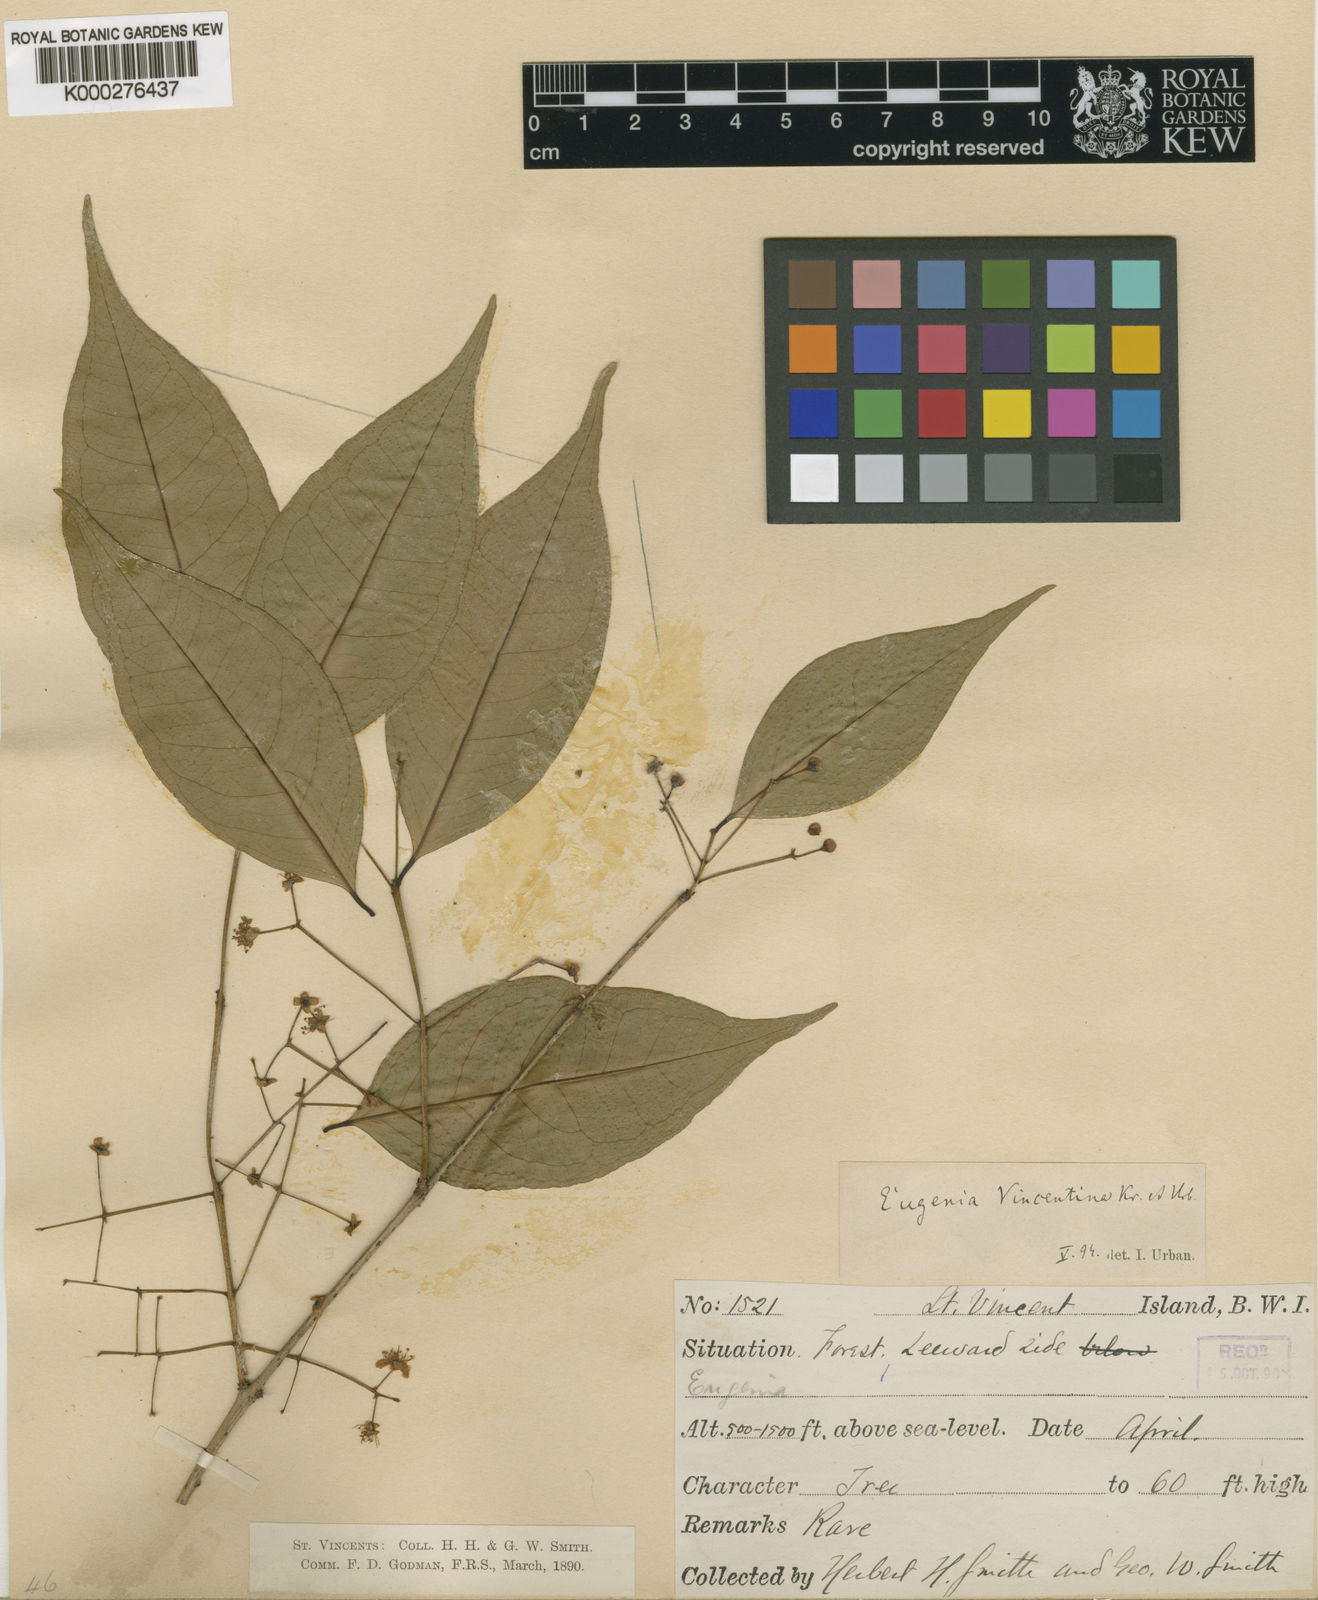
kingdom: Plantae
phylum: Tracheophyta
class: Magnoliopsida
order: Myrtales
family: Myrtaceae
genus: Eugenia
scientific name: Eugenia oerstediana
